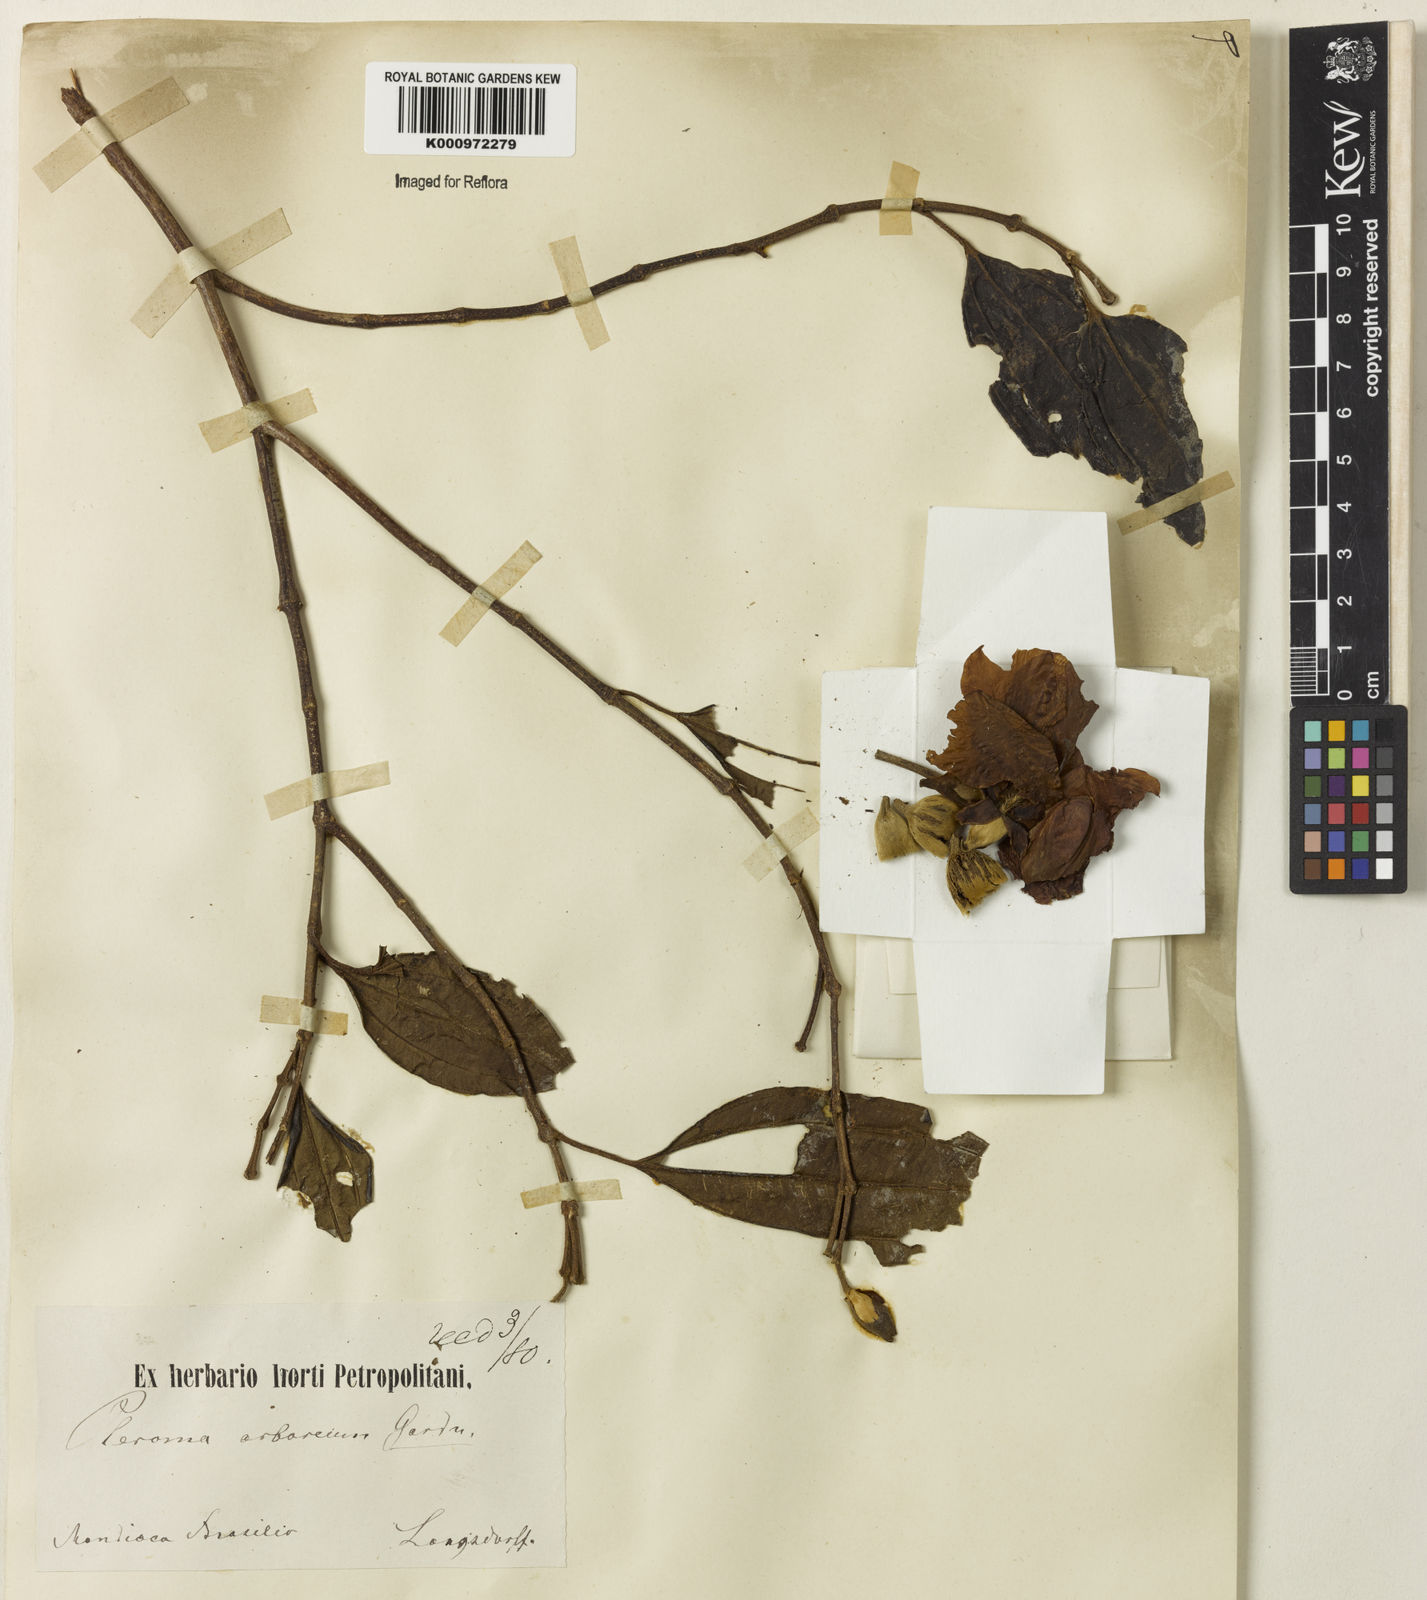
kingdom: Plantae
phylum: Tracheophyta
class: Magnoliopsida
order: Myrtales
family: Melastomataceae
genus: Pleroma
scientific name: Pleroma arboreum
